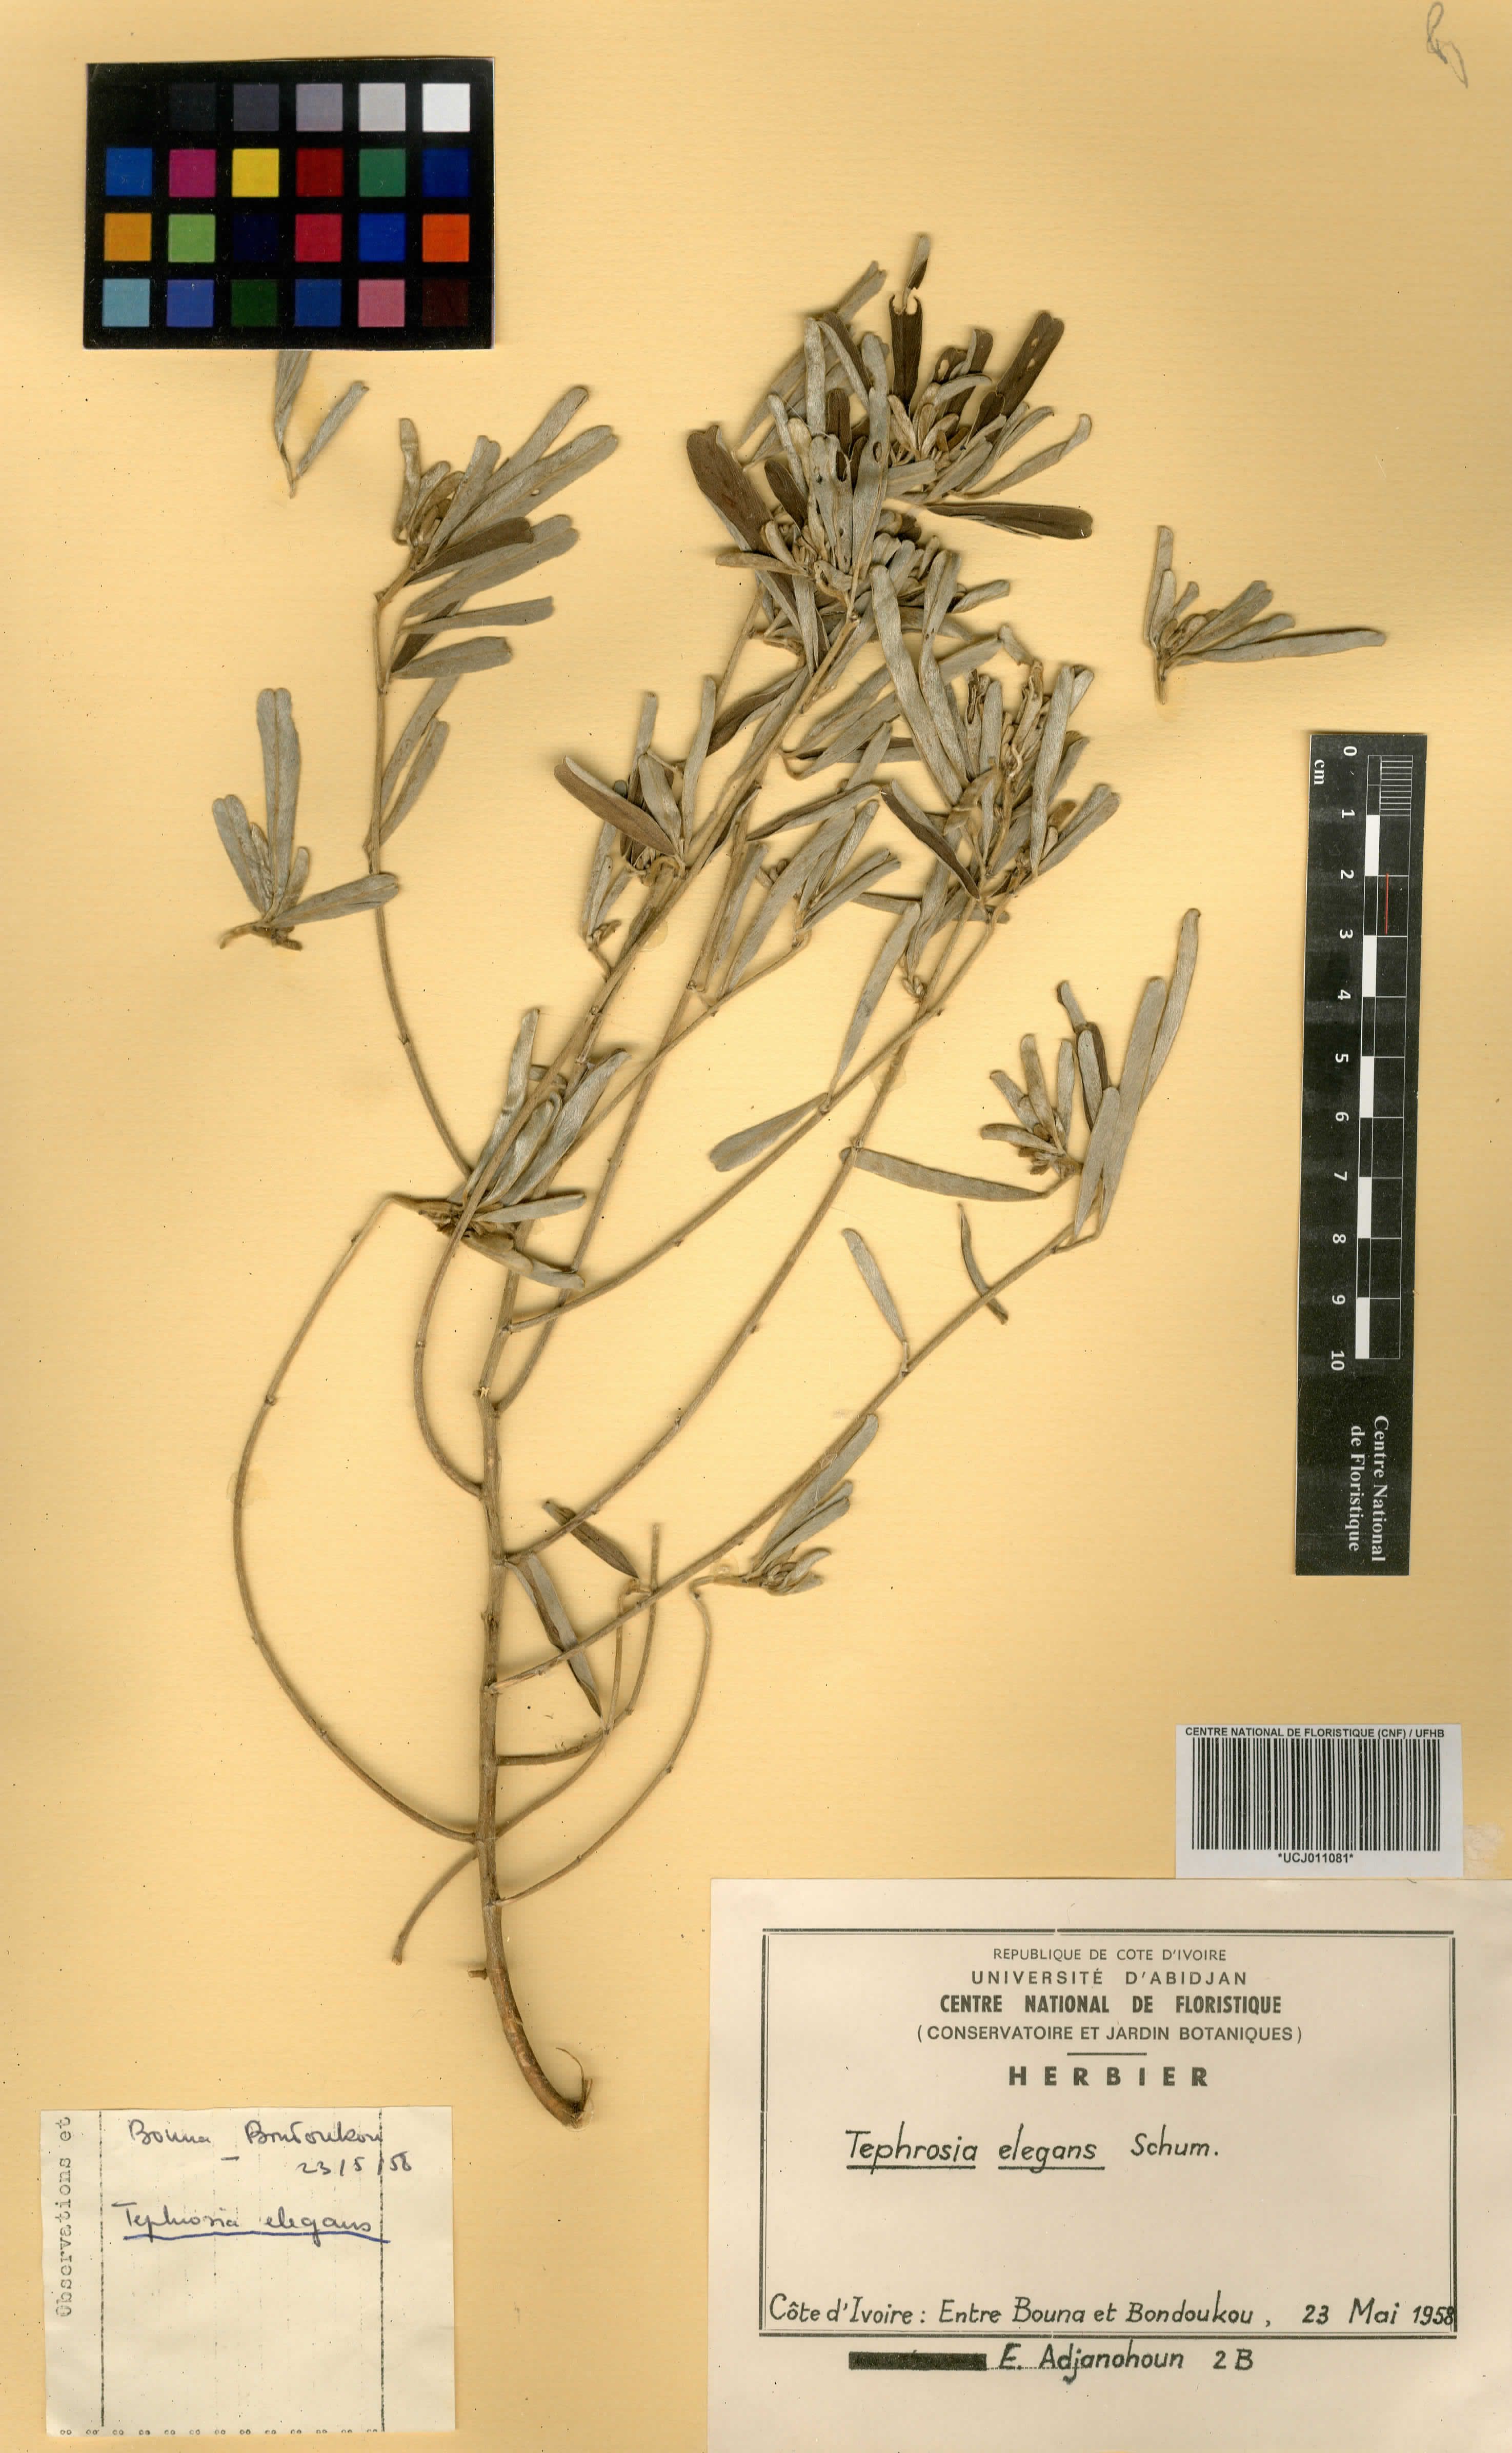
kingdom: Plantae
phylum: Tracheophyta
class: Magnoliopsida
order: Fabales
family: Fabaceae
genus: Tephrosia
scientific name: Tephrosia elegans
